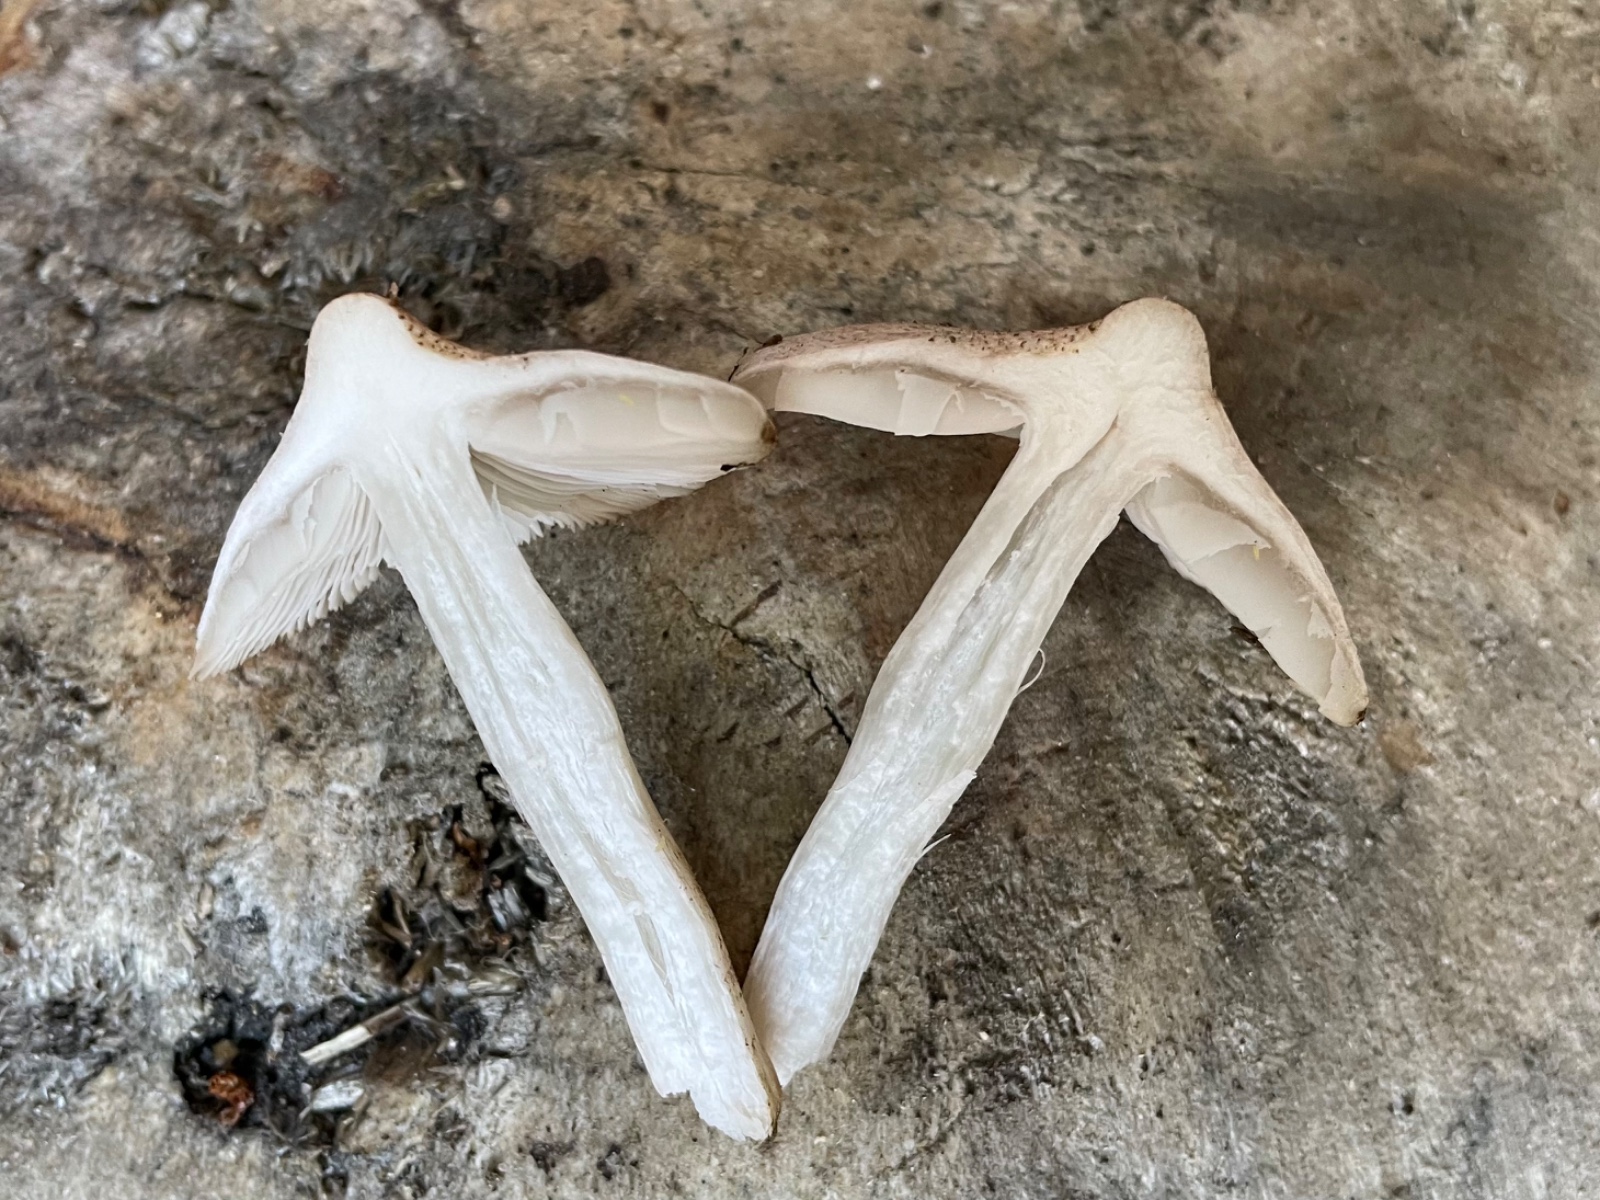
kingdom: Fungi
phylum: Basidiomycota
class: Agaricomycetes
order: Agaricales
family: Tricholomataceae
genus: Tricholoma
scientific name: Tricholoma argyraceum
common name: spids ridderhat
